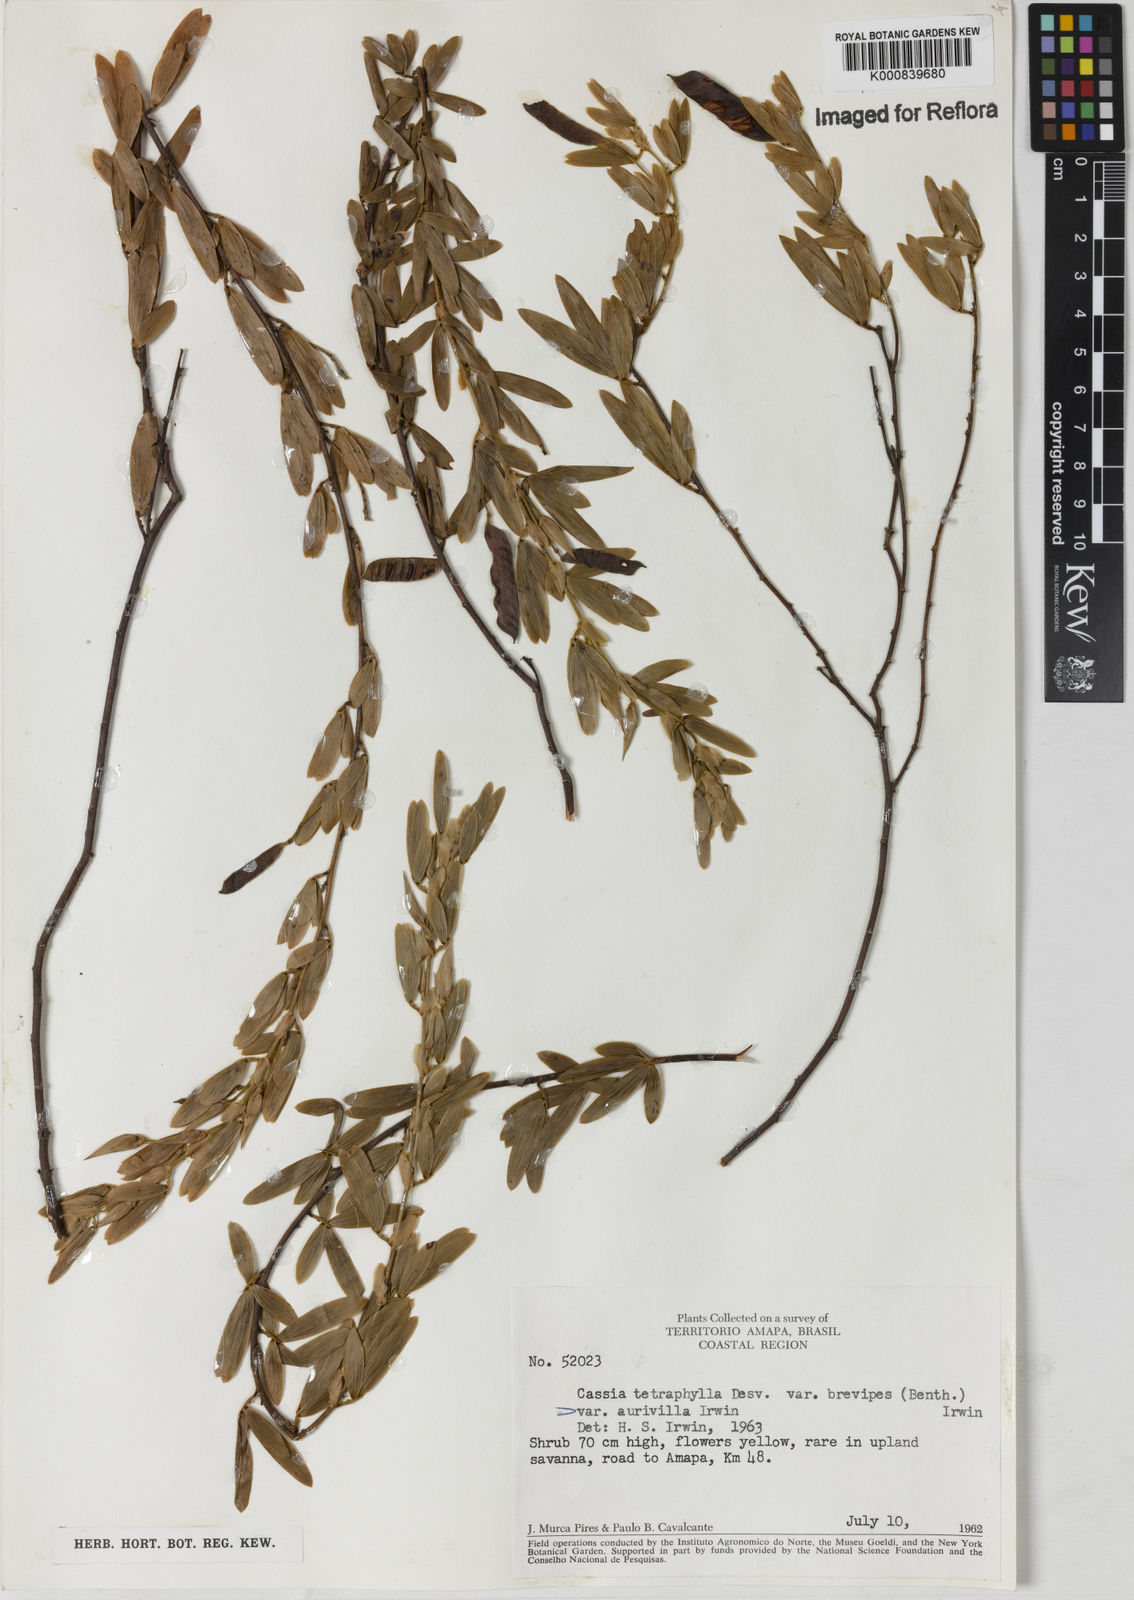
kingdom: Plantae
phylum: Tracheophyta
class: Magnoliopsida
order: Fabales
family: Fabaceae
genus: Chamaecrista
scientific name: Chamaecrista desvauxii
